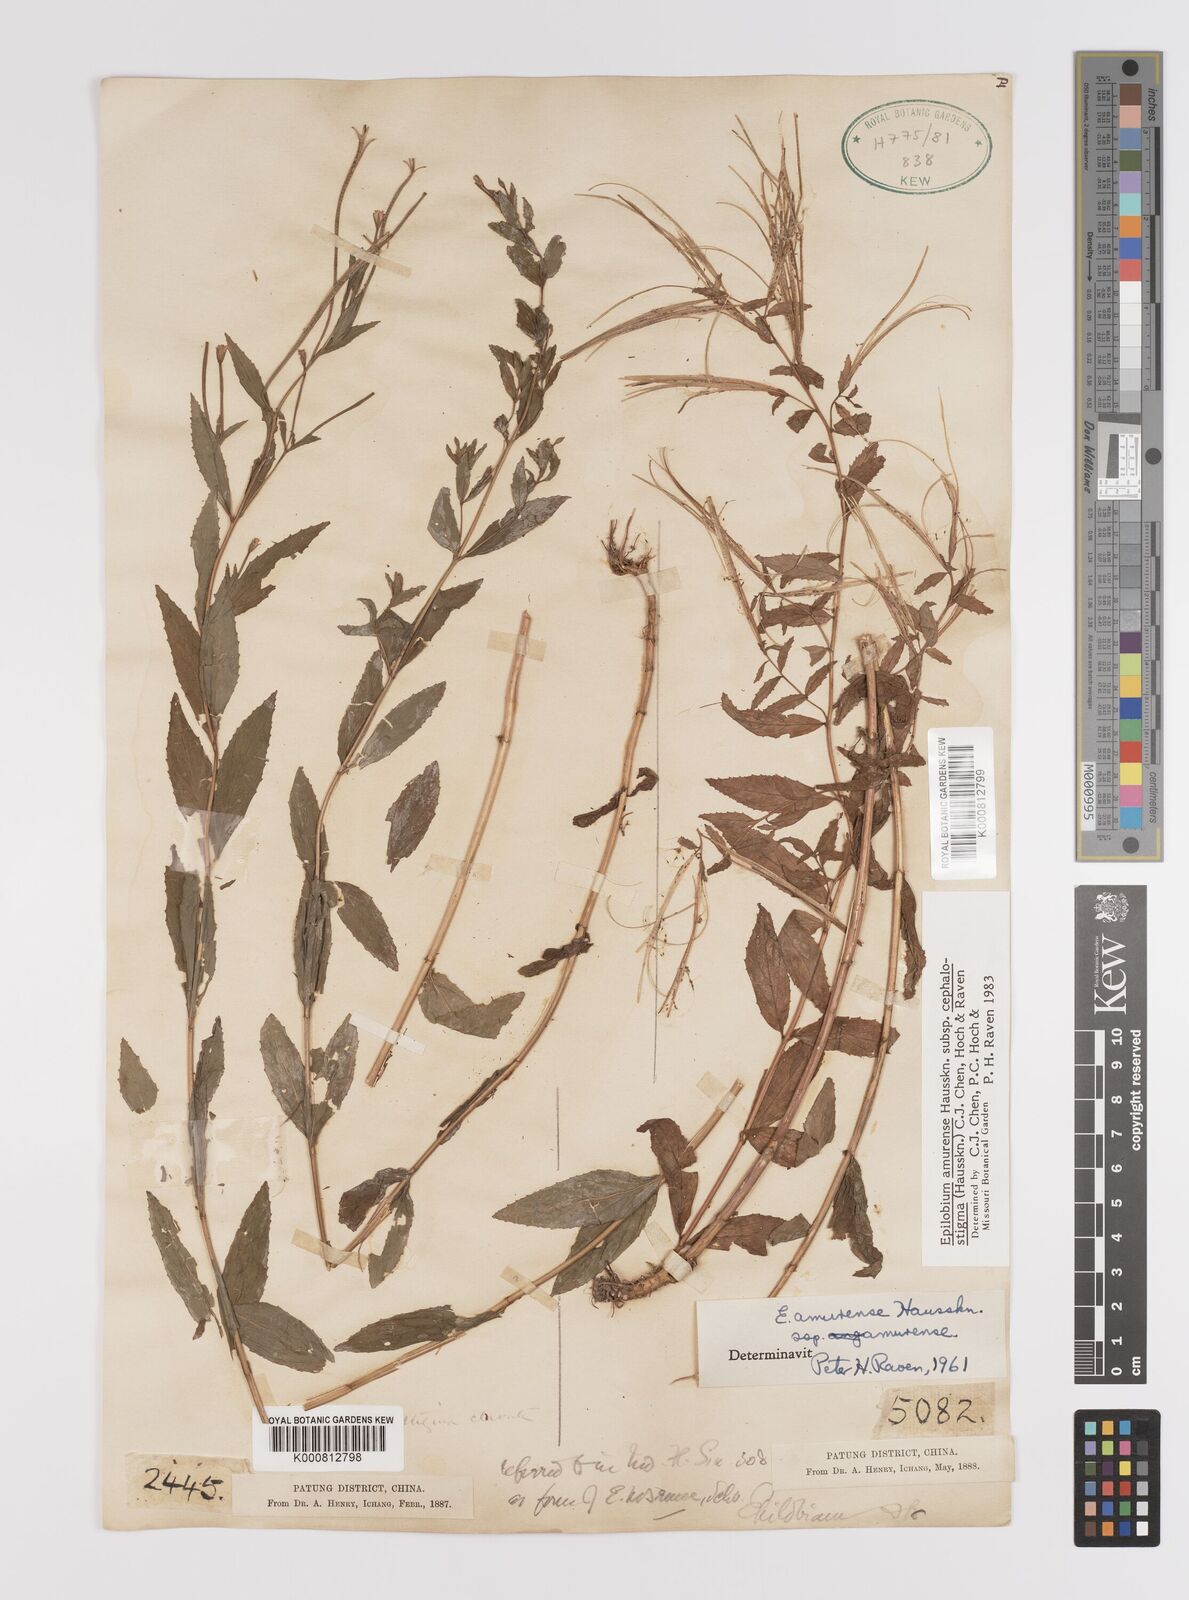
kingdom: Plantae
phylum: Tracheophyta
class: Magnoliopsida
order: Myrtales
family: Onagraceae
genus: Epilobium
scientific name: Epilobium amurense
